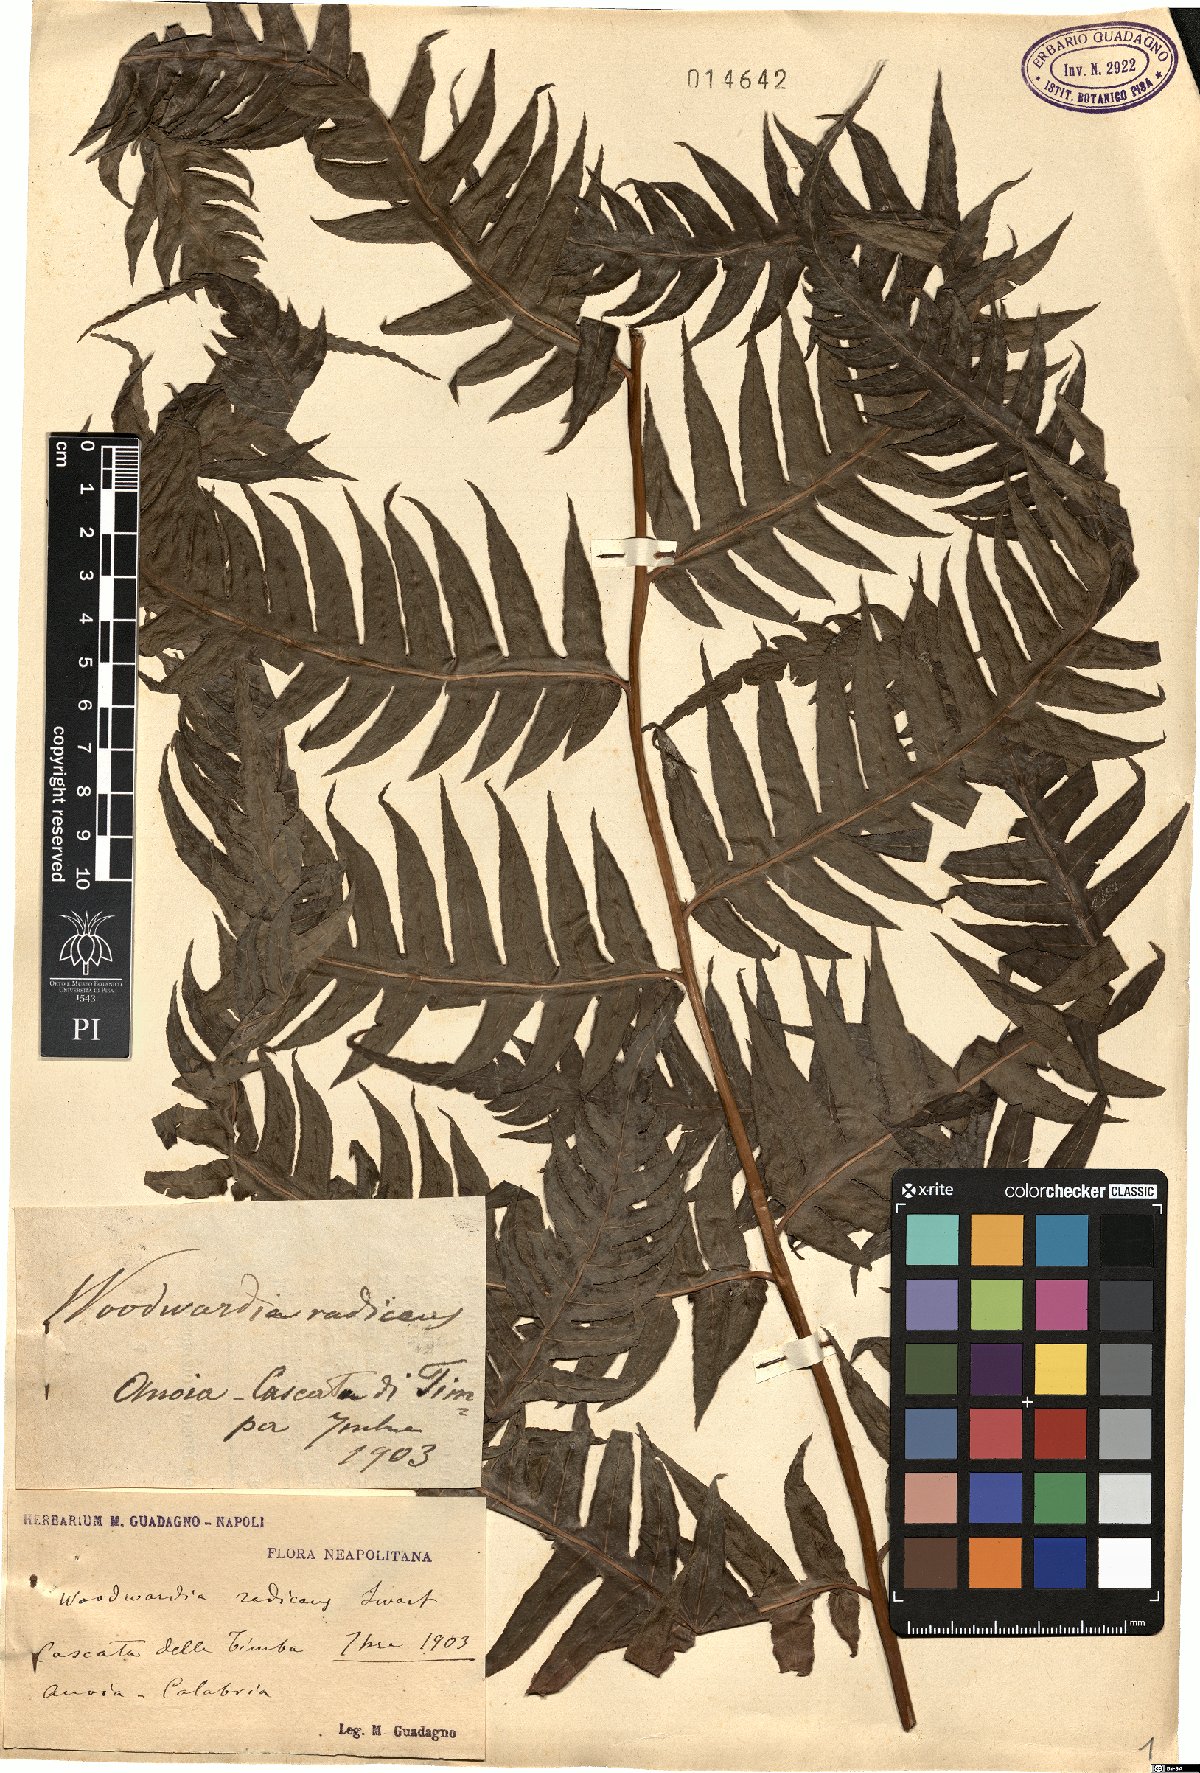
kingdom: Plantae
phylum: Tracheophyta
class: Polypodiopsida
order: Polypodiales
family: Blechnaceae
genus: Woodwardia
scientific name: Woodwardia radicans
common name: Rooting chainfern
